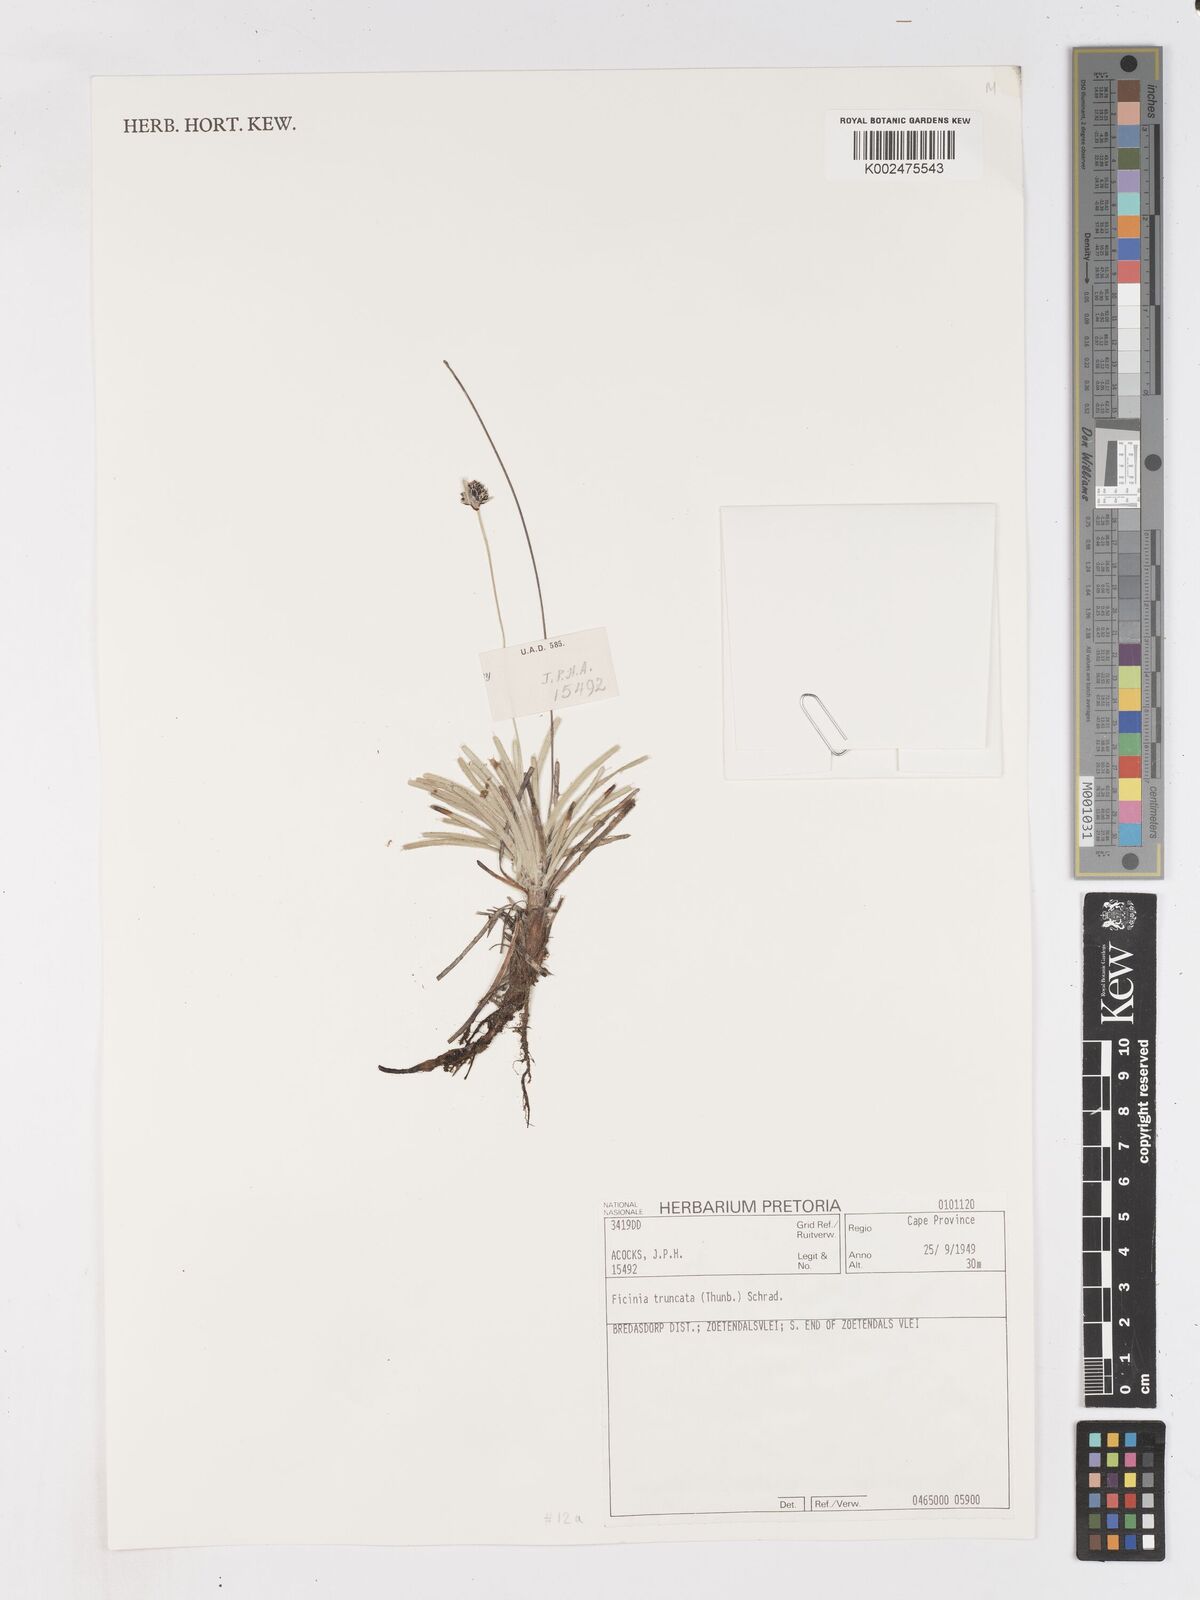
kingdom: Plantae
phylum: Tracheophyta
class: Liliopsida
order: Poales
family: Cyperaceae
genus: Ficinia
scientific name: Ficinia truncata
